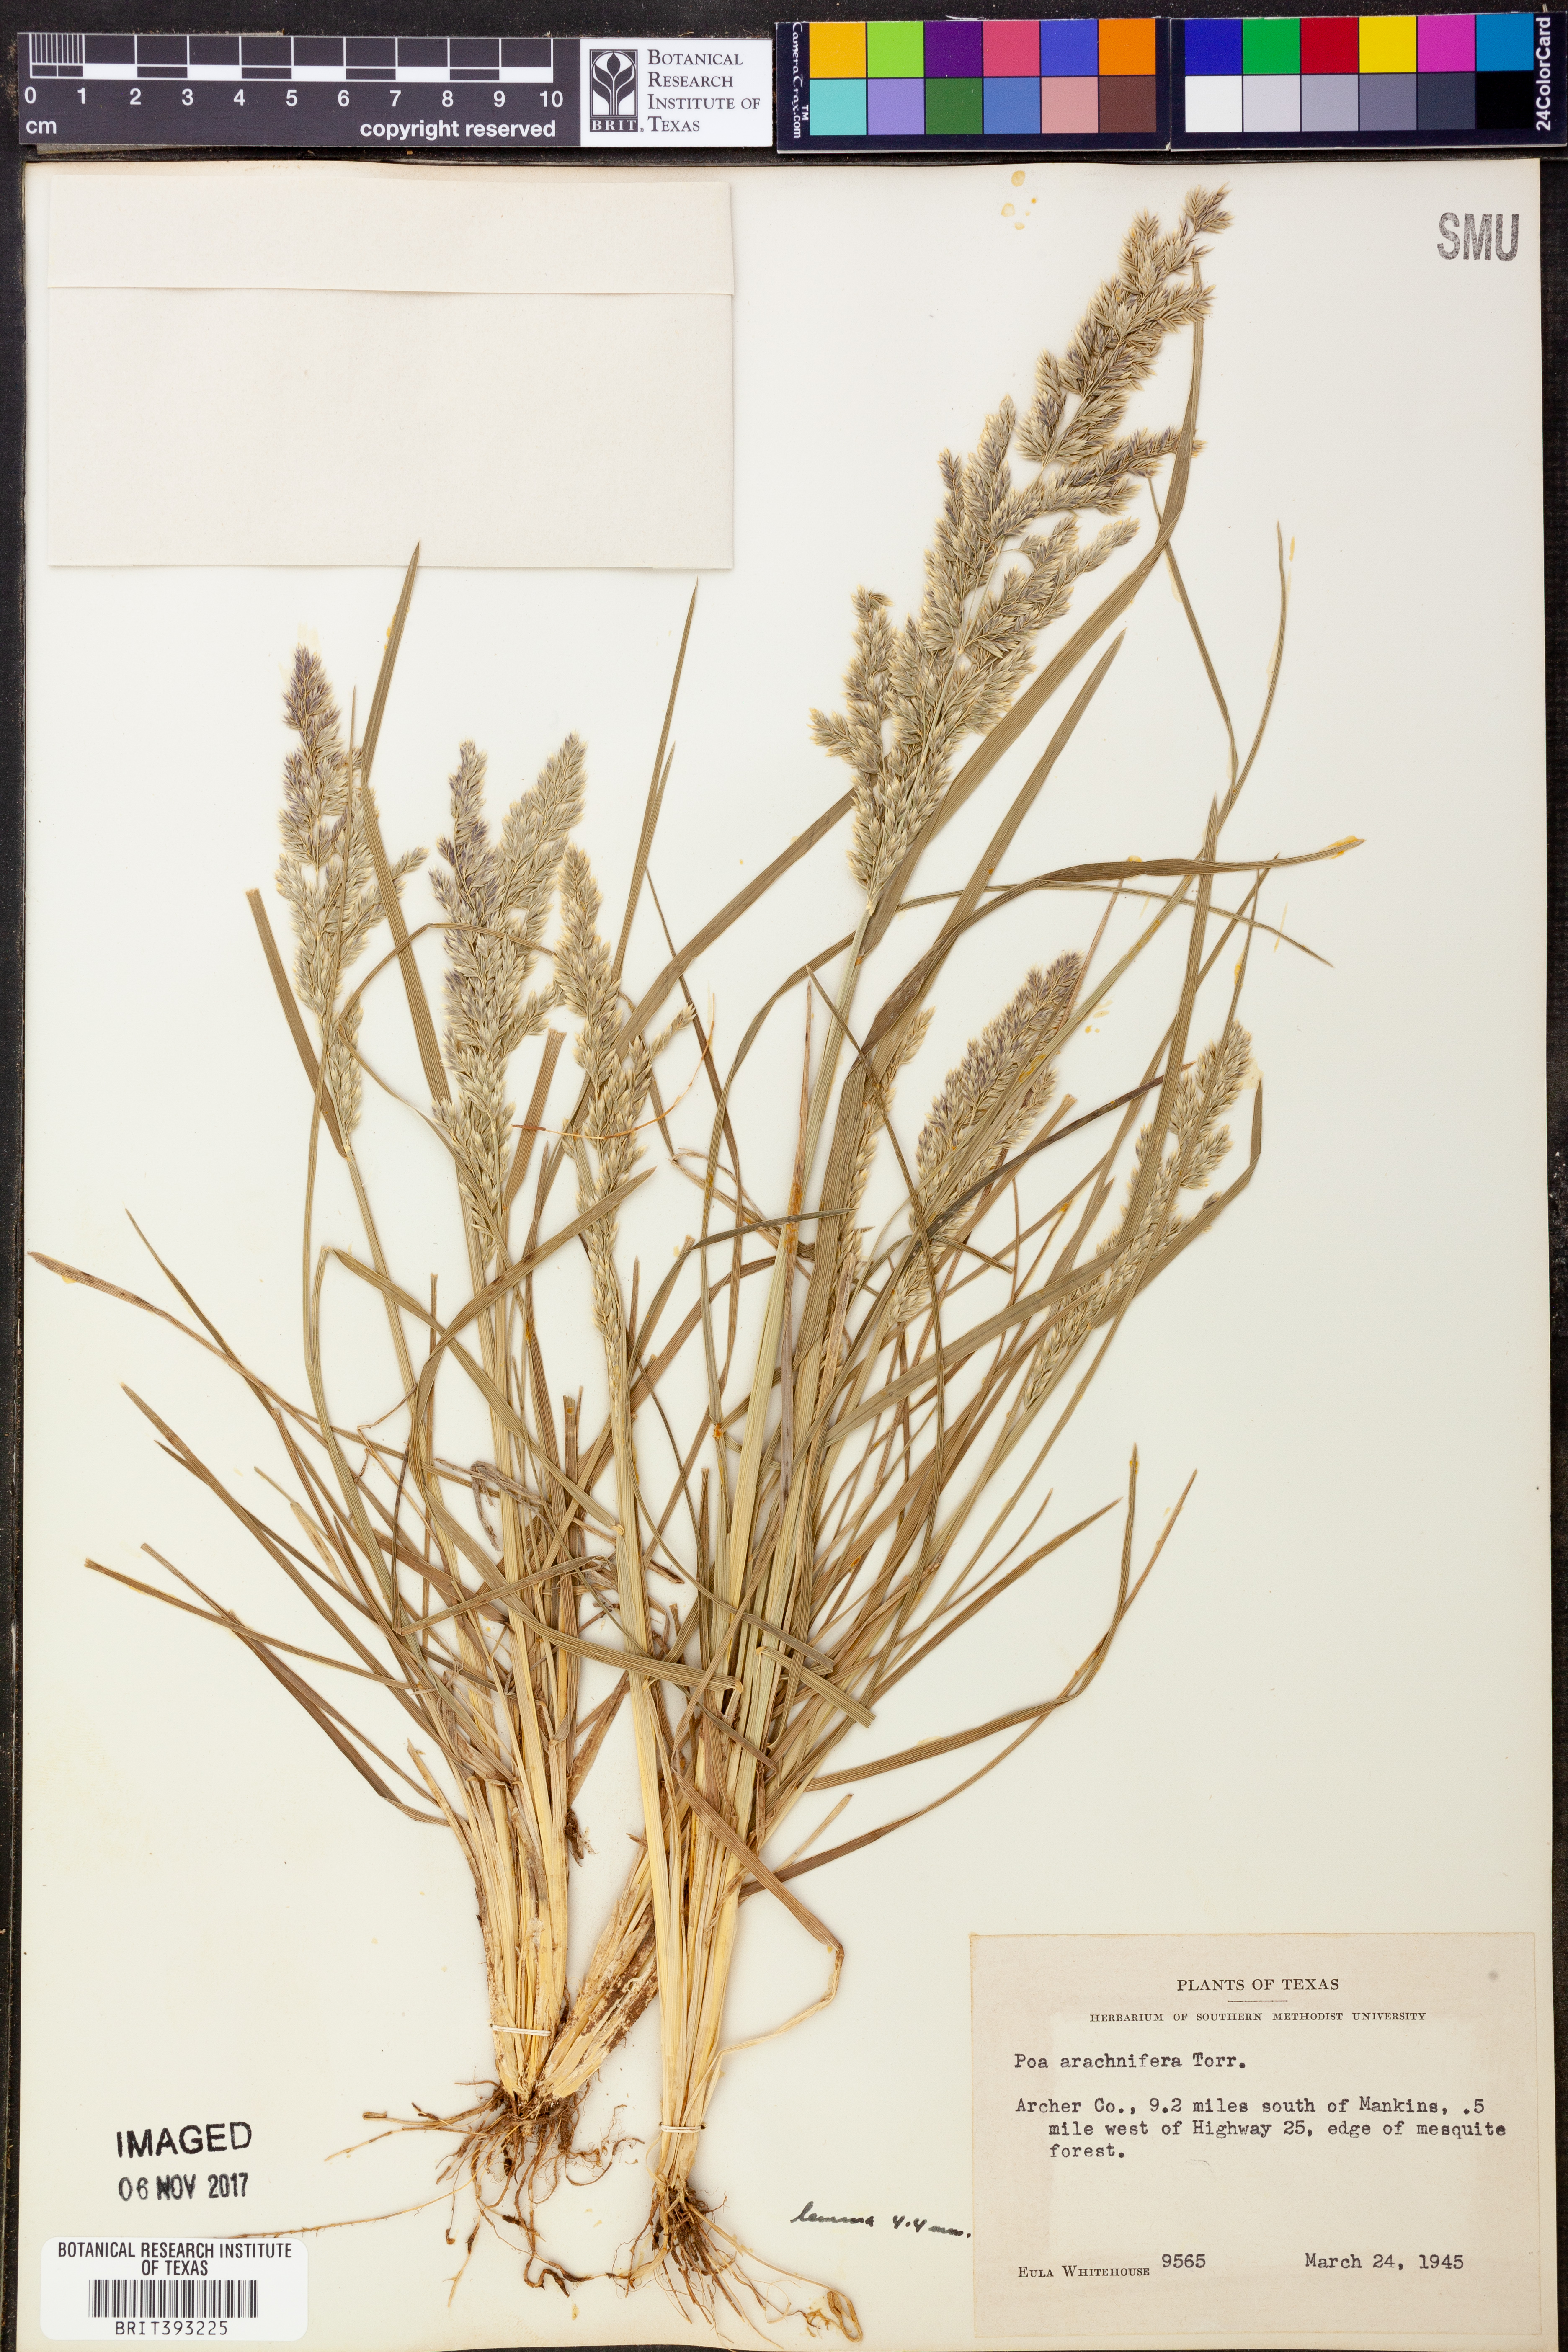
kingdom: Plantae
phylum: Tracheophyta
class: Liliopsida
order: Poales
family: Poaceae
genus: Poa
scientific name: Poa arachnifera
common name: Texas bluegrass
